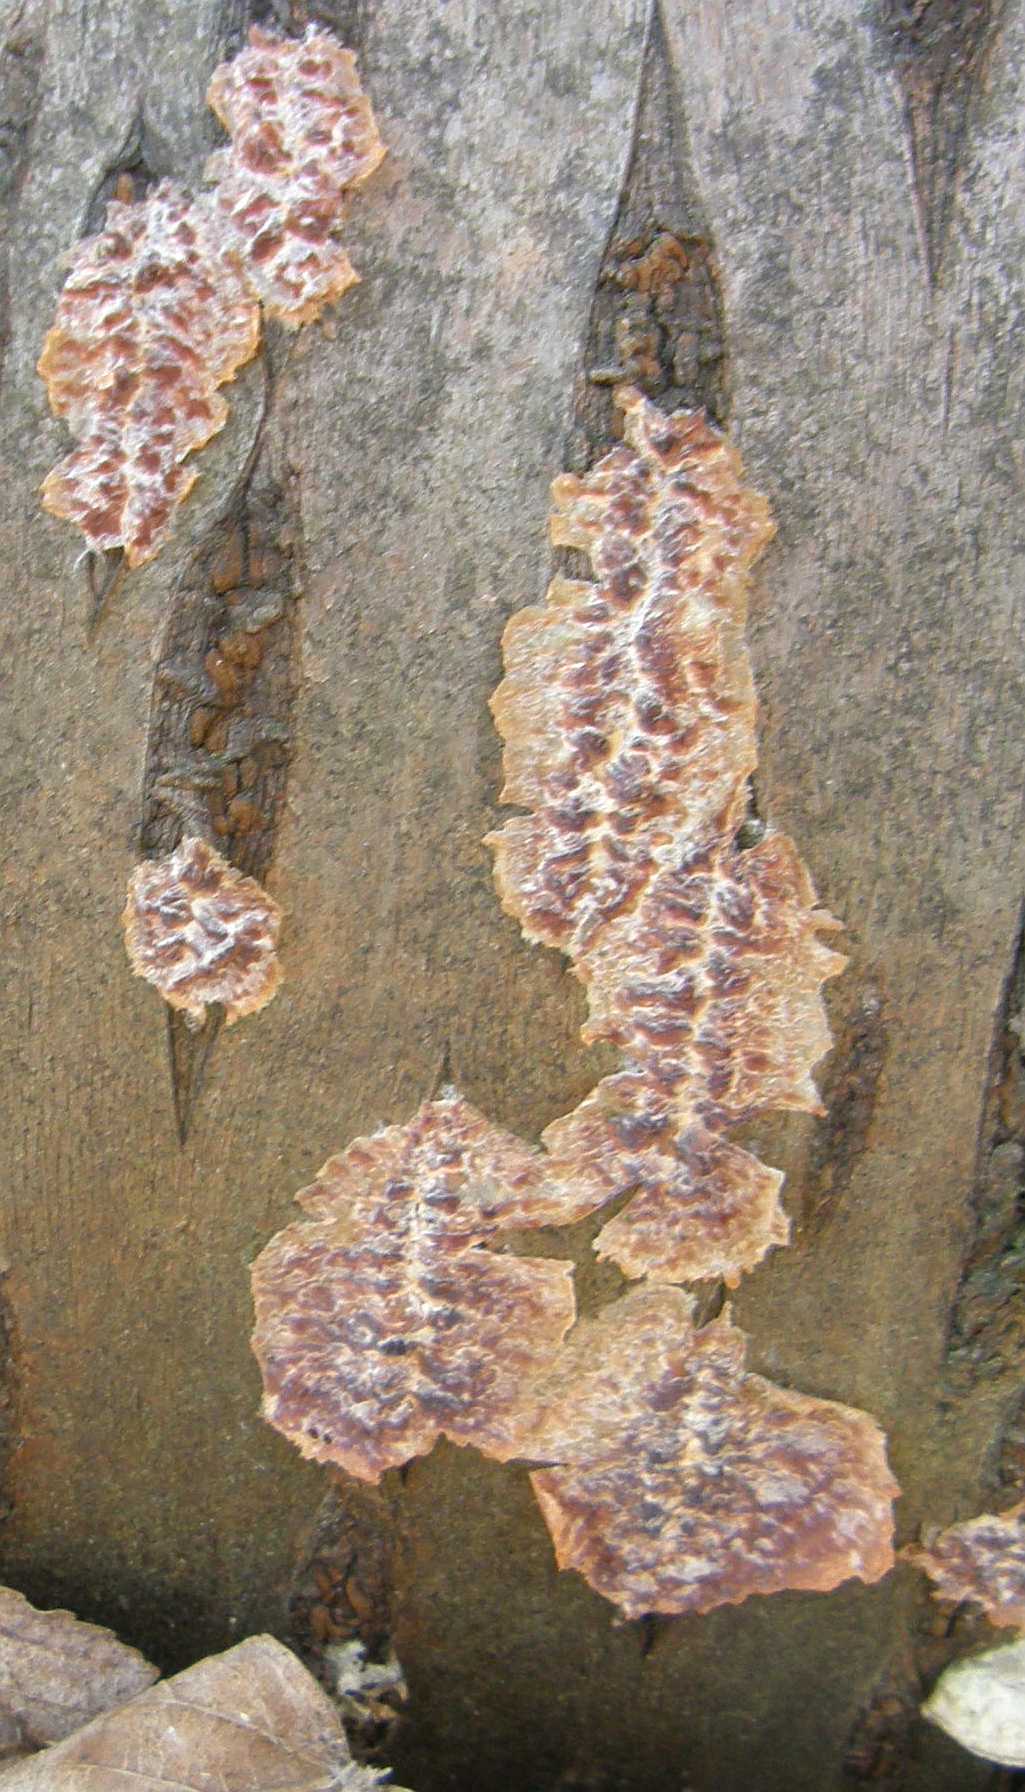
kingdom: Fungi
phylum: Basidiomycota
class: Agaricomycetes
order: Polyporales
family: Meruliaceae
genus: Phlebia
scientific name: Phlebia radiata
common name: stråle-åresvamp
